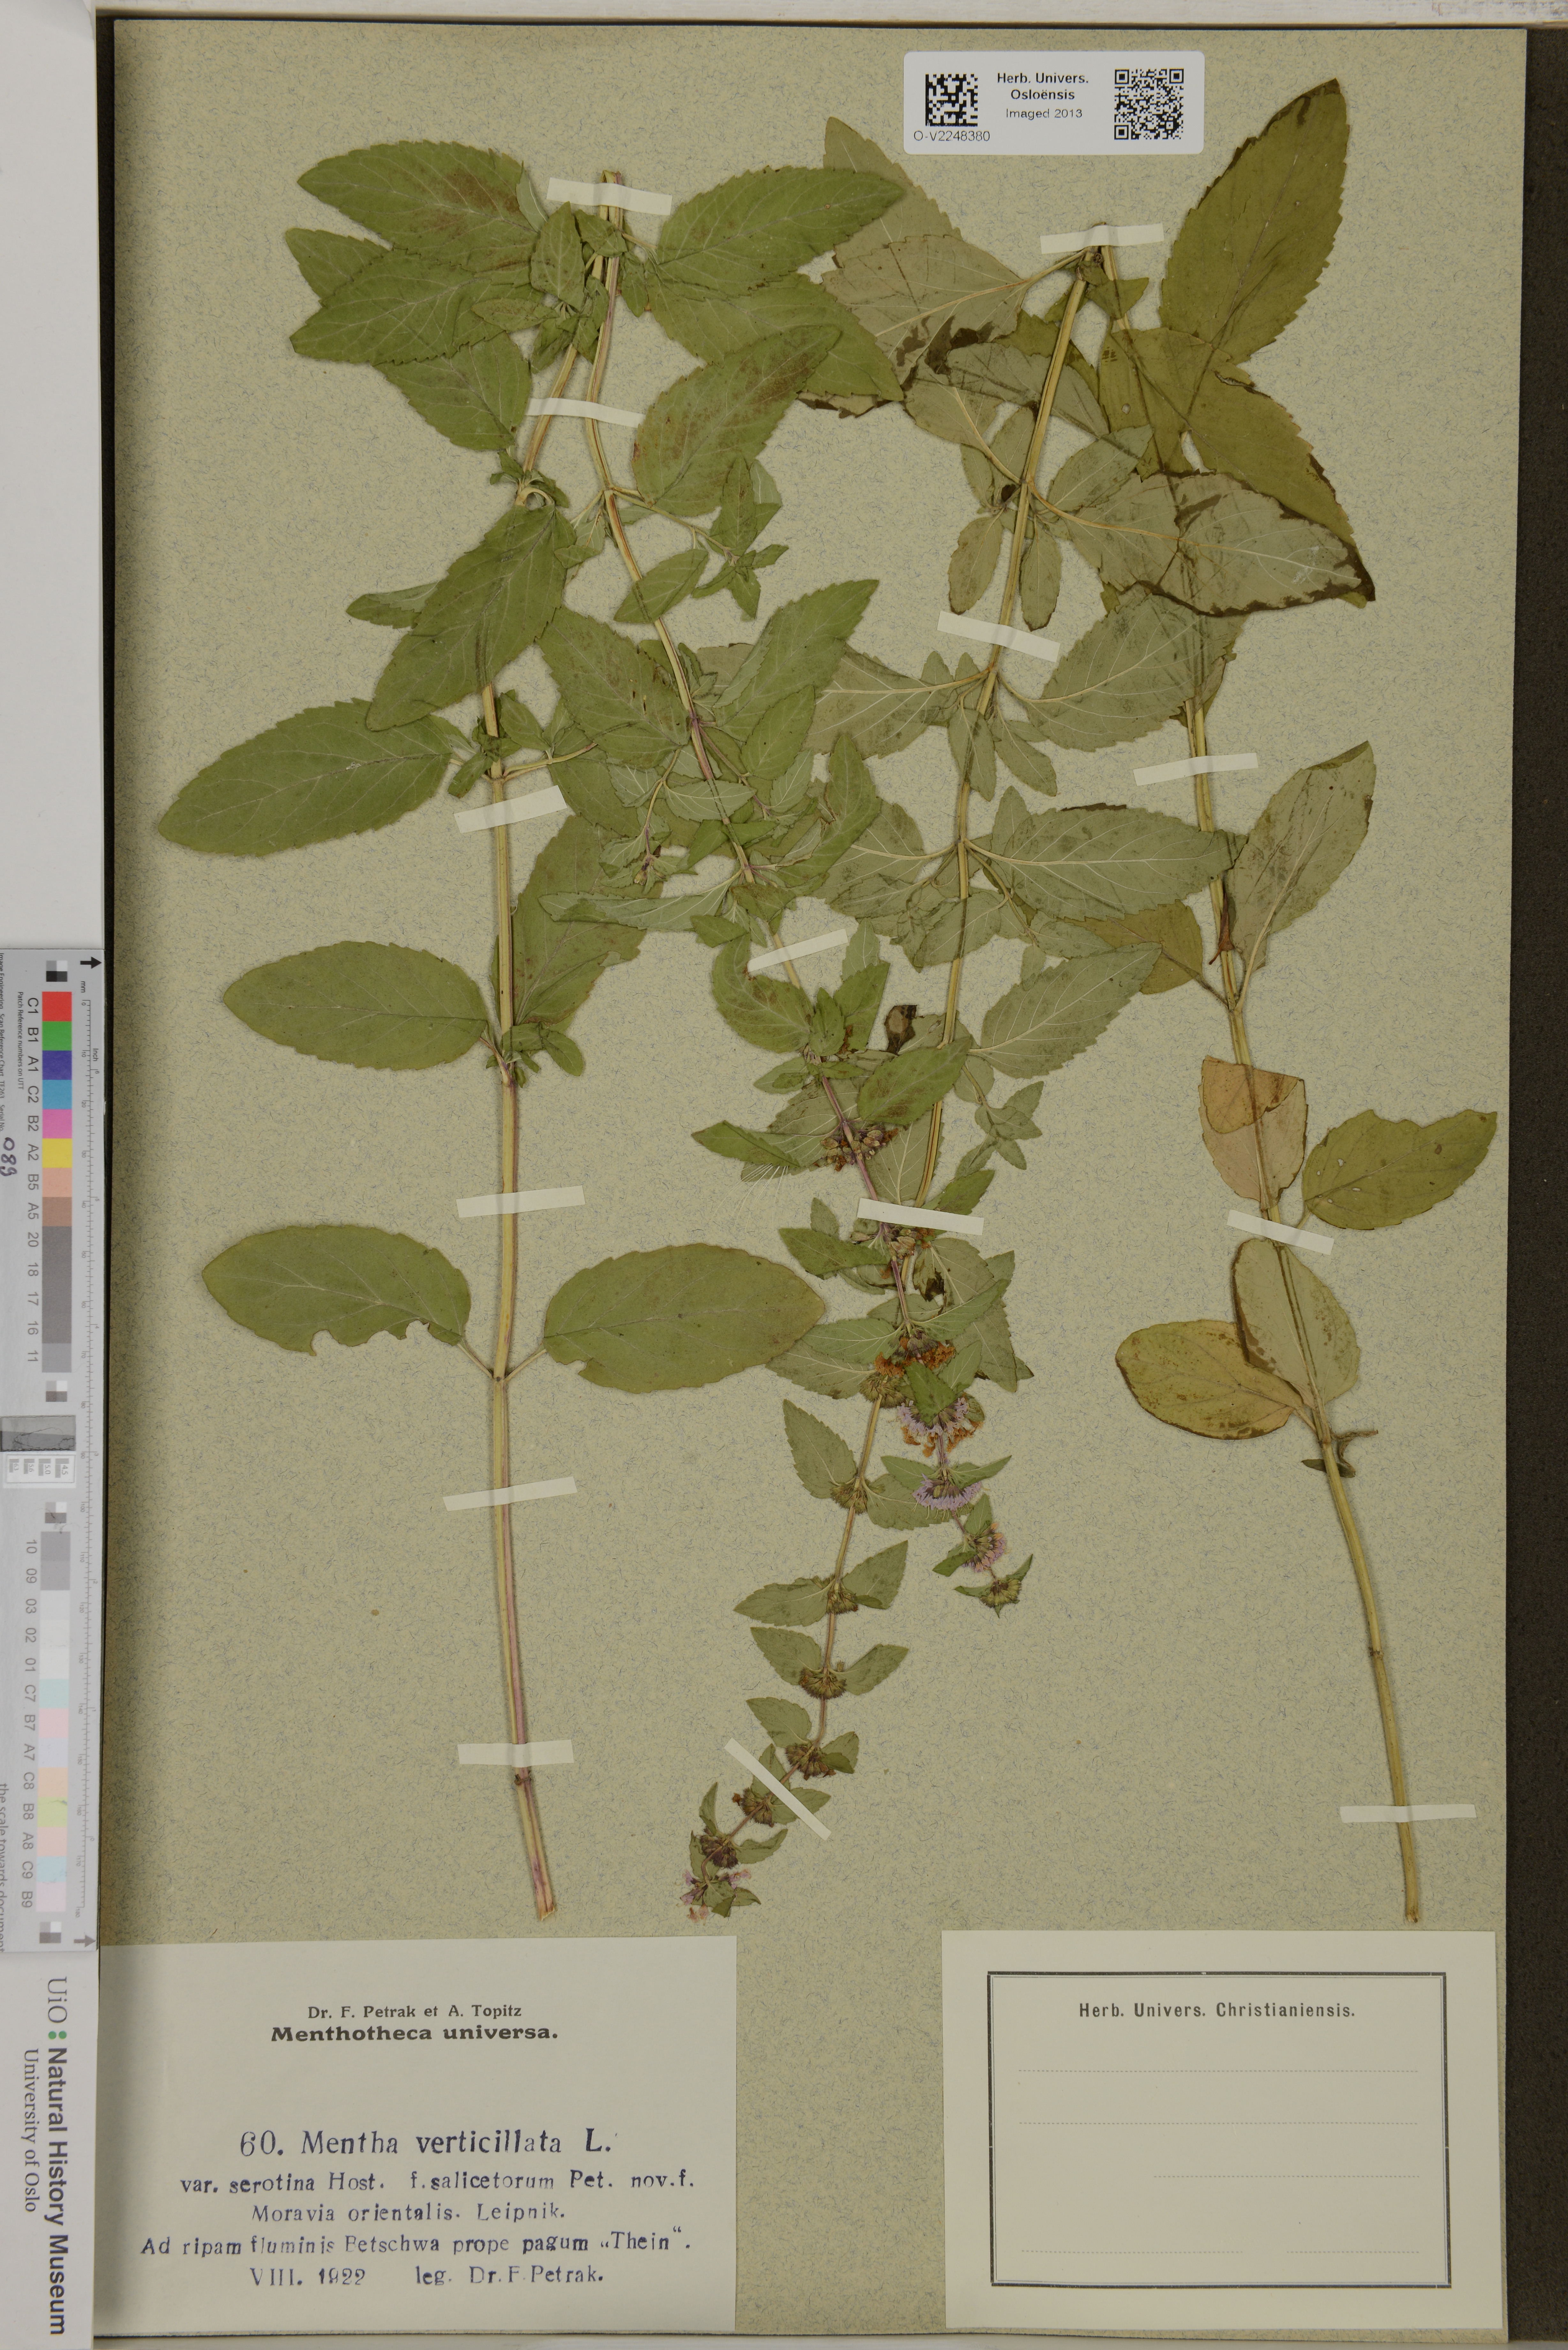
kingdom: Plantae
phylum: Tracheophyta
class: Magnoliopsida
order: Lamiales
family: Lamiaceae
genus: Mentha
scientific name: Mentha verticillata
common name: Mint
